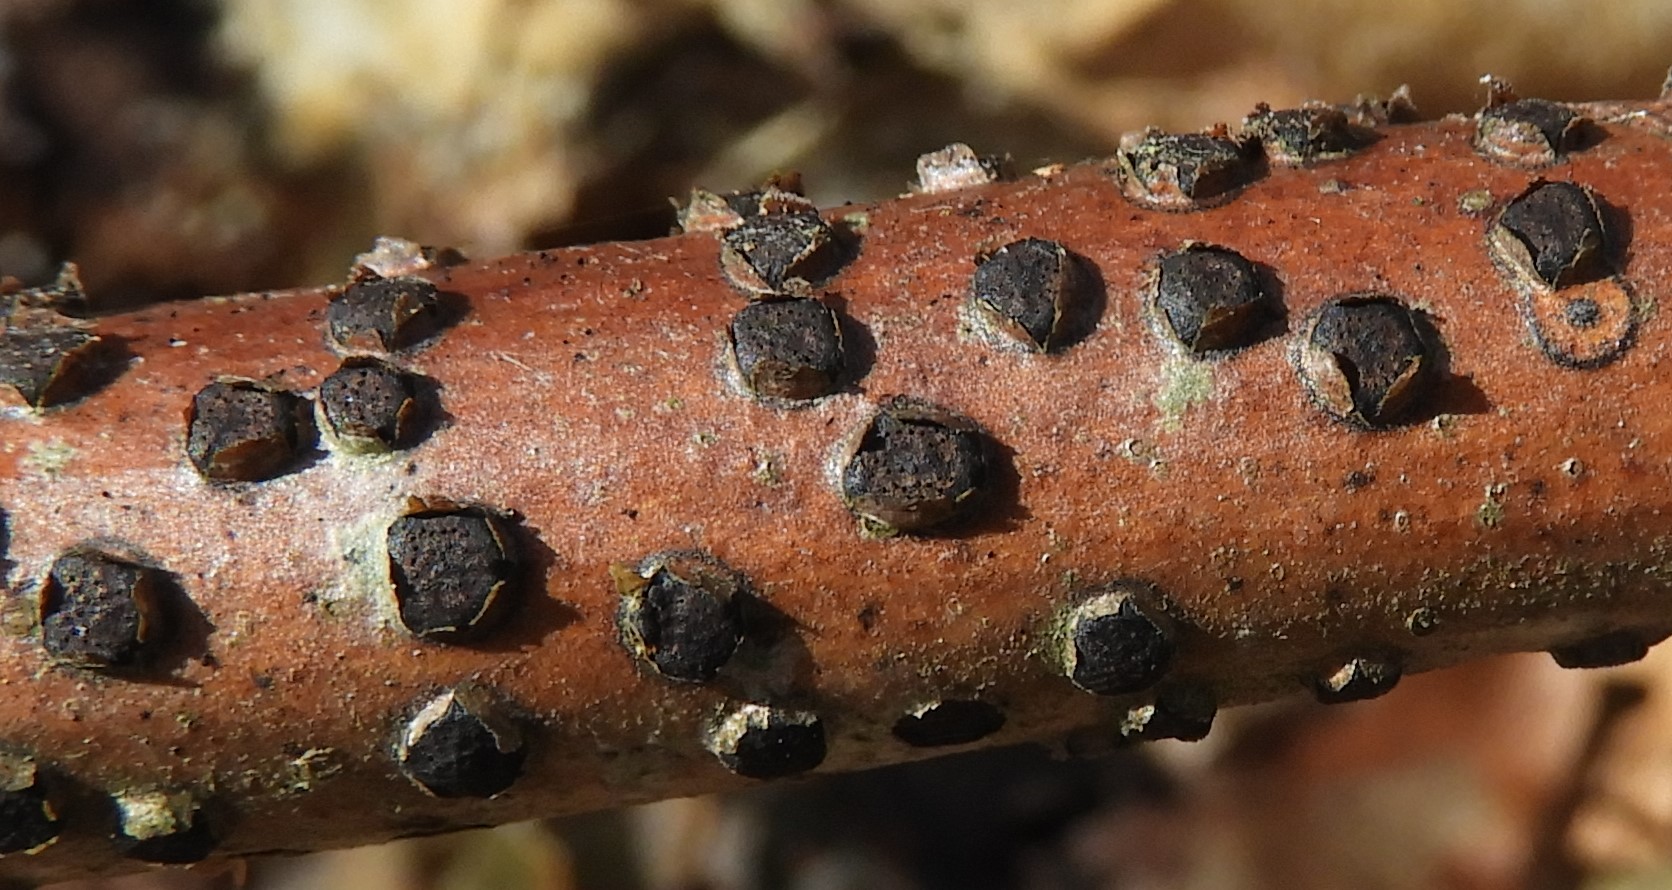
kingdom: Fungi
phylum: Ascomycota
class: Sordariomycetes
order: Xylariales
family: Diatrypaceae
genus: Diatrype
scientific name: Diatrype disciformis
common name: kant-kulskorpe
